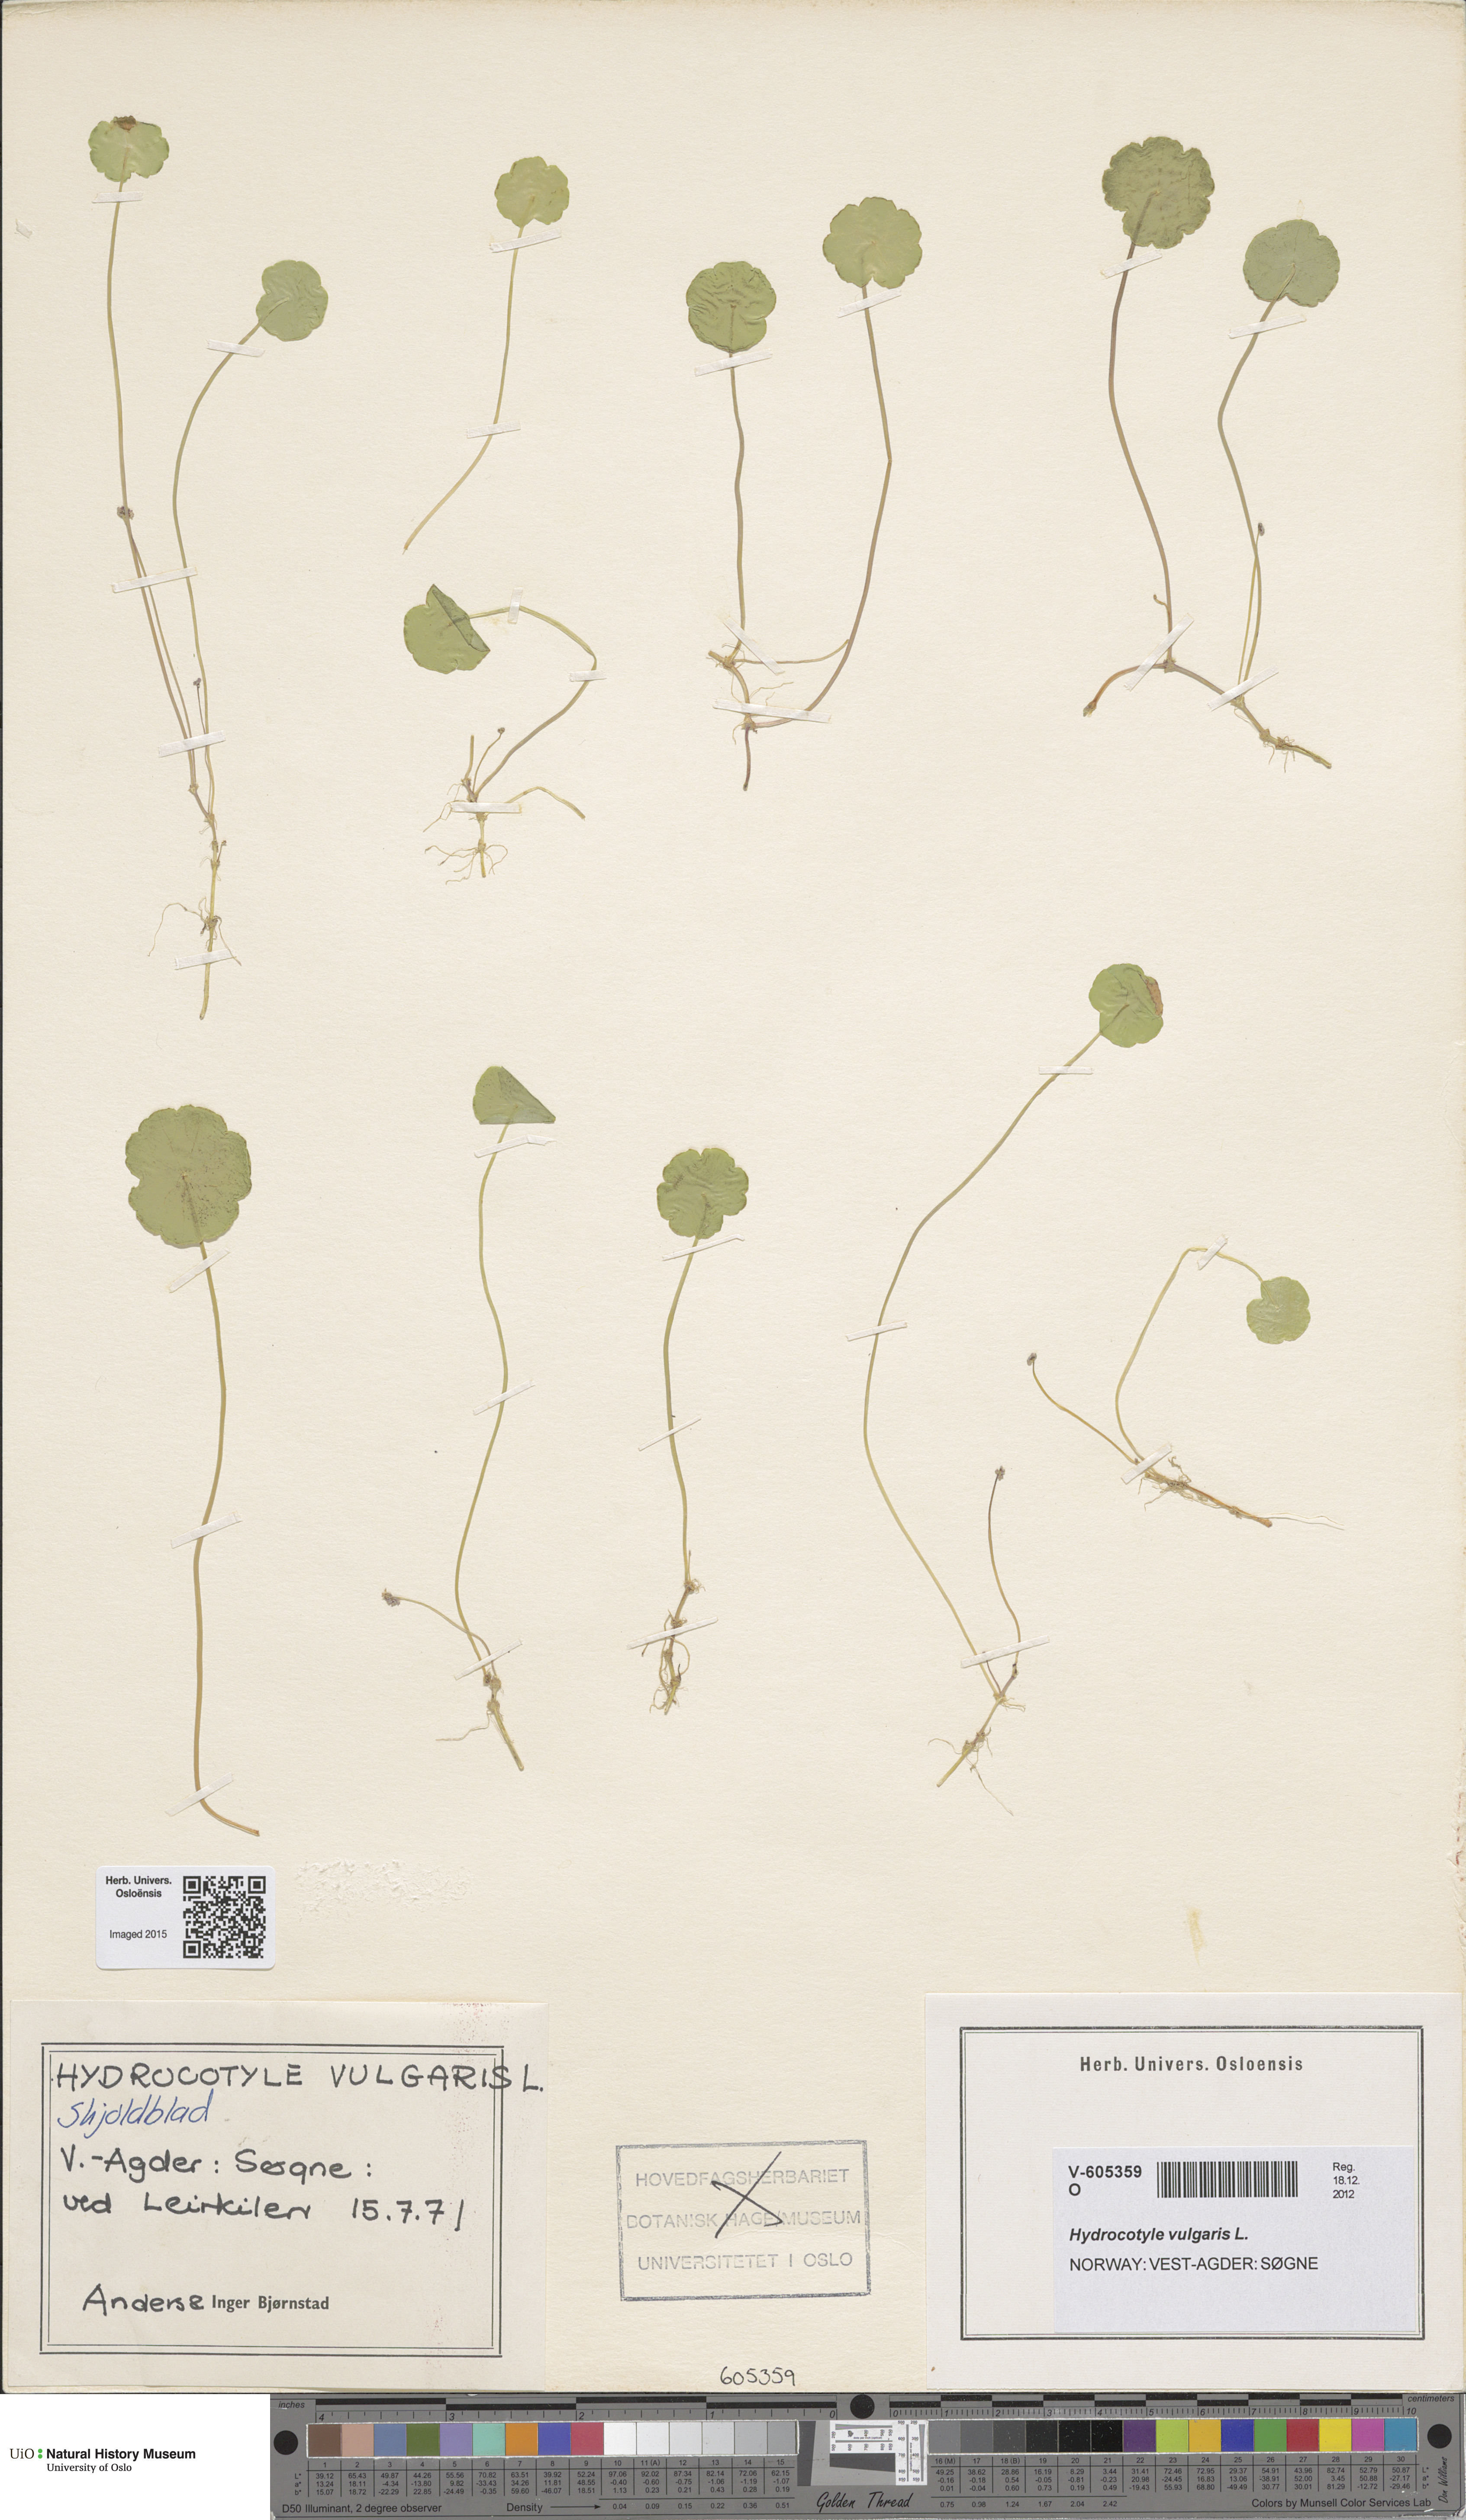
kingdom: Plantae
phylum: Tracheophyta
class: Magnoliopsida
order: Apiales
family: Araliaceae
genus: Hydrocotyle
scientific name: Hydrocotyle vulgaris
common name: Marsh pennywort
